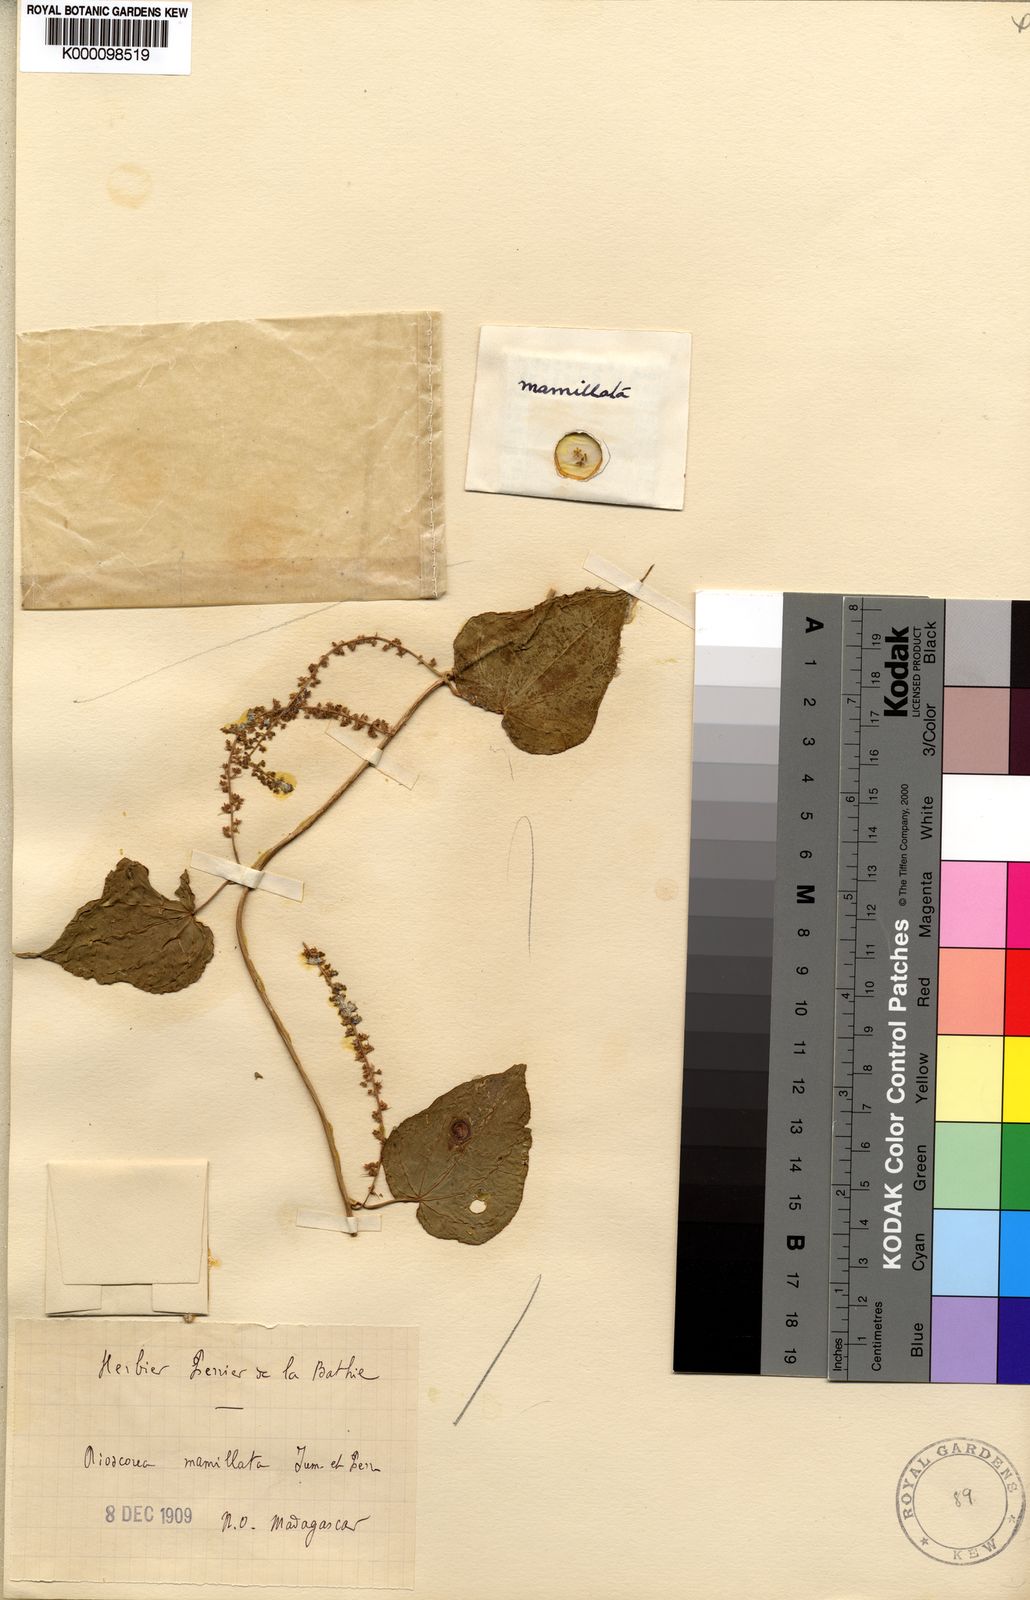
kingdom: Plantae
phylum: Tracheophyta
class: Liliopsida
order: Dioscoreales
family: Dioscoreaceae
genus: Dioscorea
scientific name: Dioscorea
